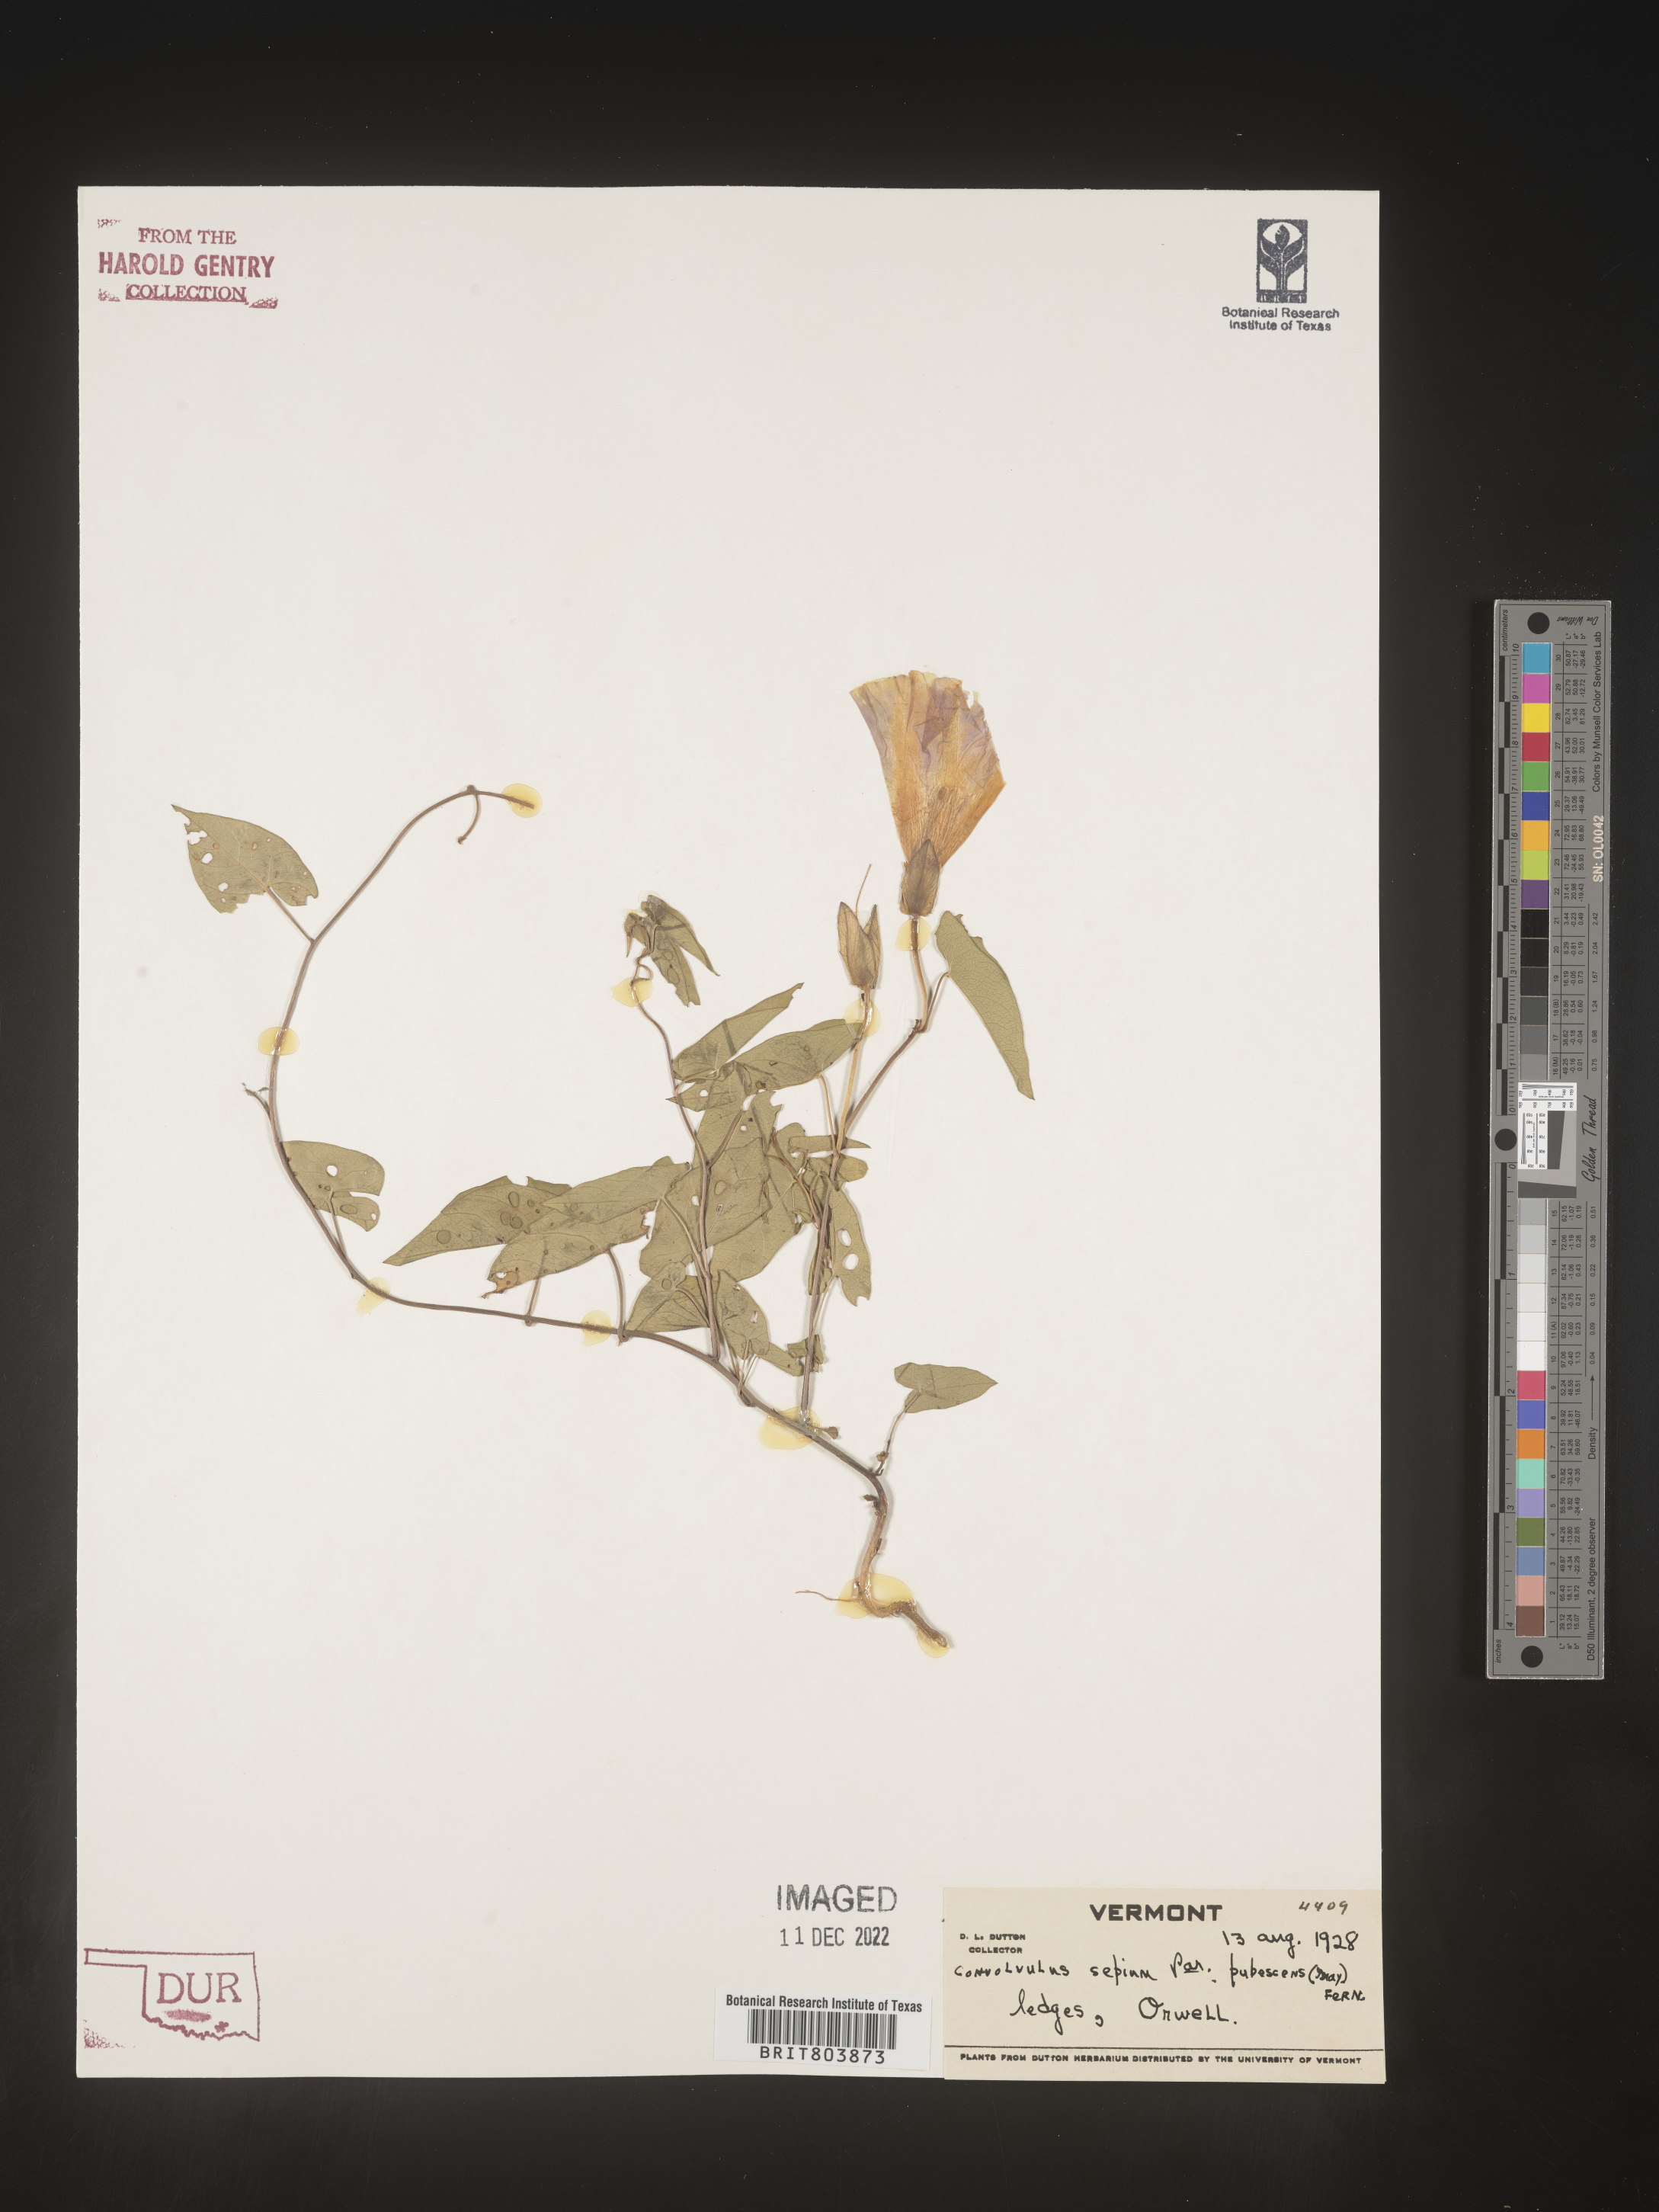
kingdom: Plantae
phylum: Tracheophyta
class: Magnoliopsida
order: Solanales
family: Convolvulaceae
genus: Calystegia
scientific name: Calystegia sepium
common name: Hedge bindweed
